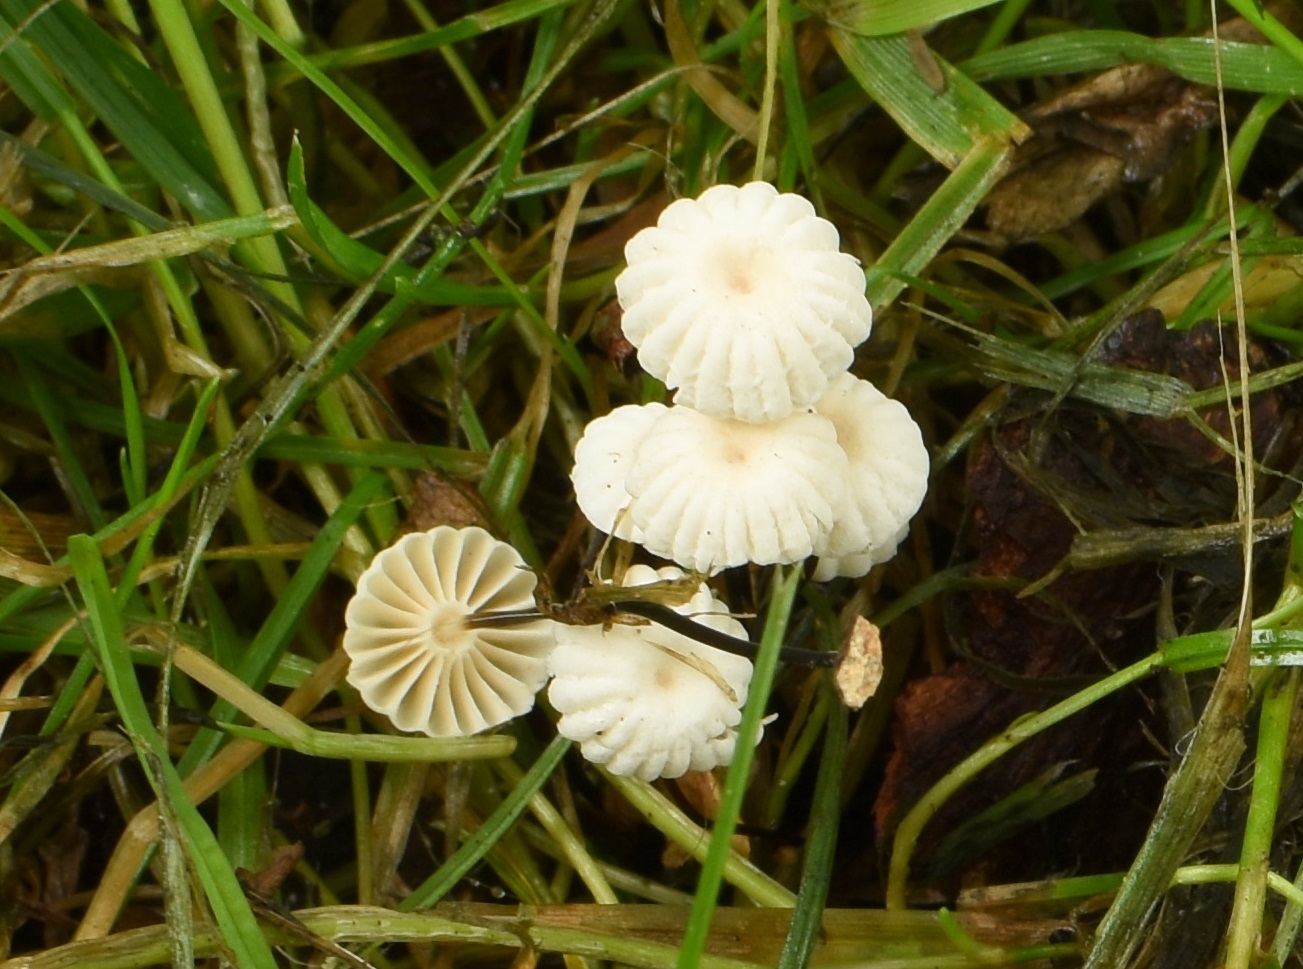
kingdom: Fungi
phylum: Basidiomycota
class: Agaricomycetes
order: Agaricales
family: Marasmiaceae
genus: Marasmius
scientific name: Marasmius rotula
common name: hjul-bruskhat
